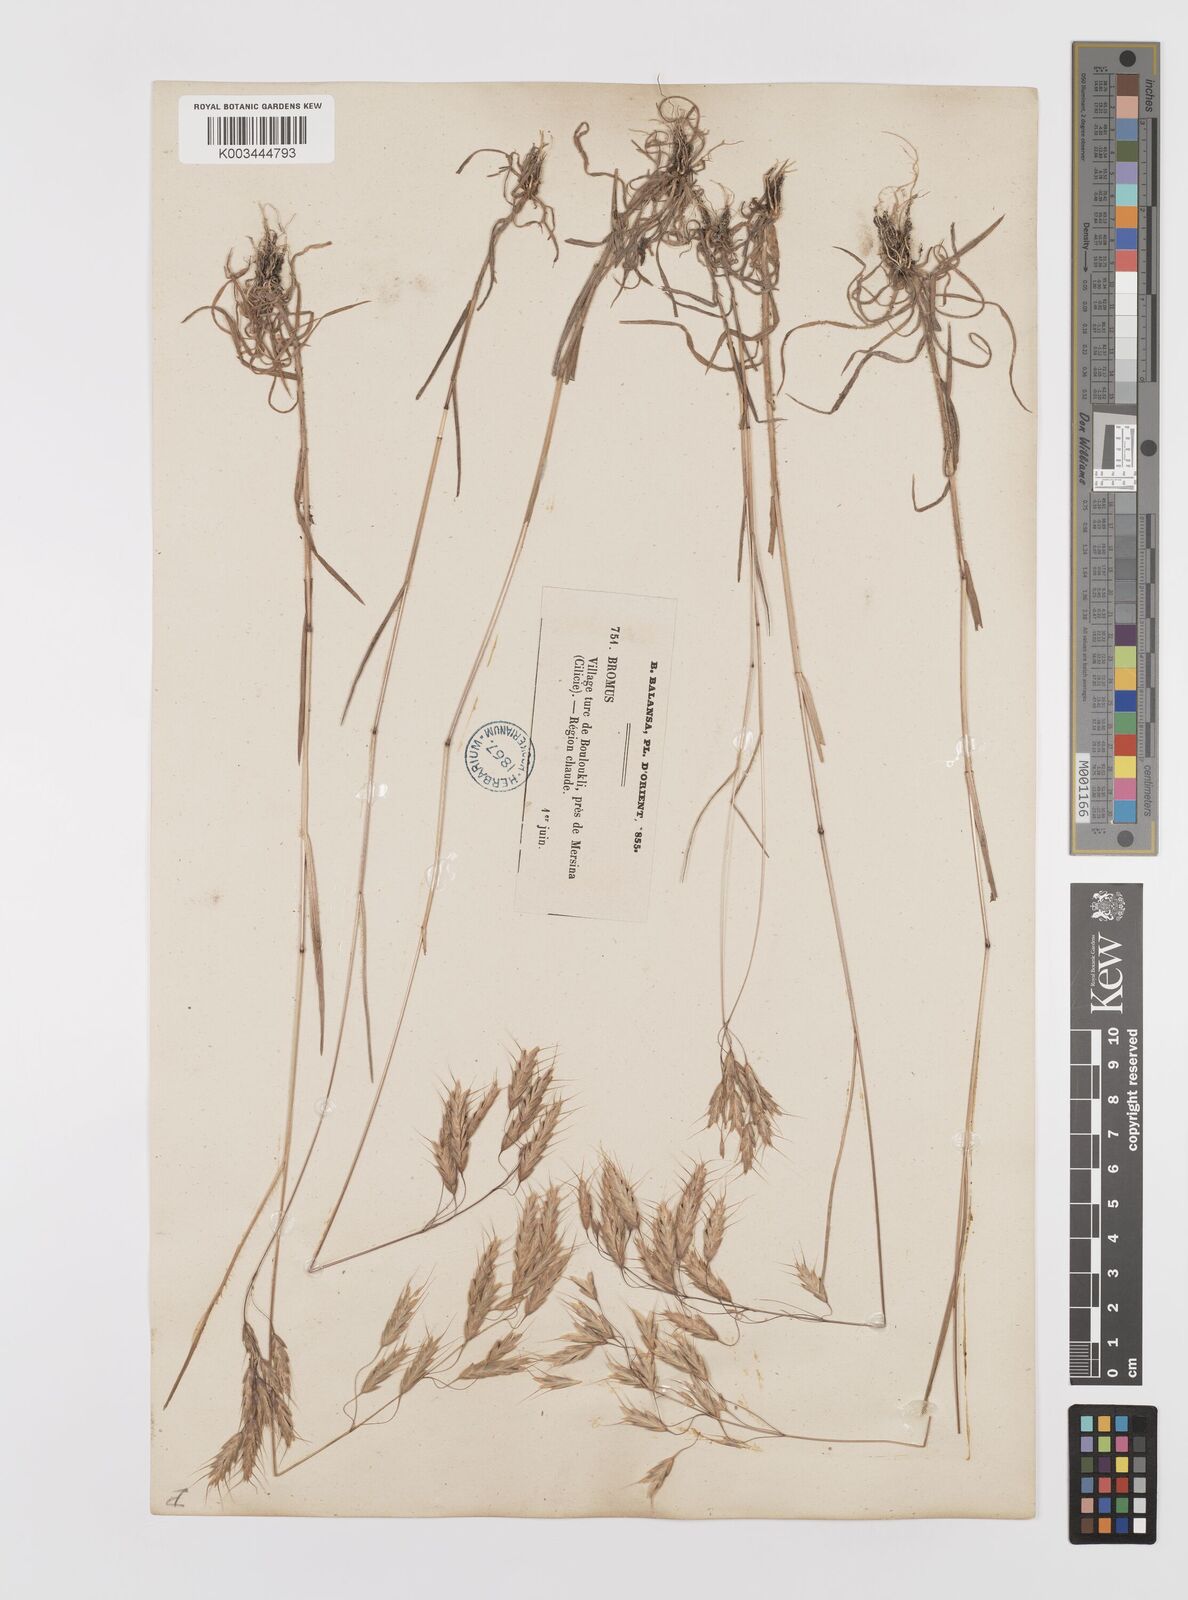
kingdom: Plantae
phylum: Tracheophyta
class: Liliopsida
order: Poales
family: Poaceae
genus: Bromus
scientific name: Bromus squarrosus
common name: Corn brome
